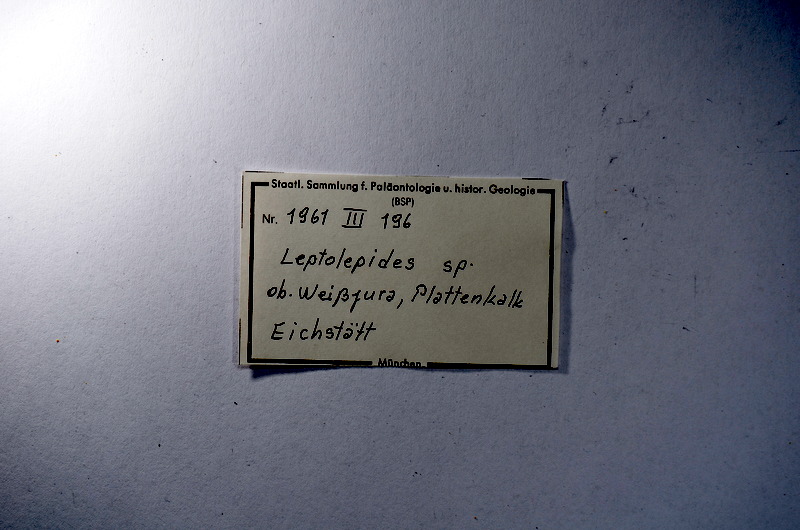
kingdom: Animalia
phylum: Chordata
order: Salmoniformes
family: Orthogonikleithridae
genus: Leptolepides
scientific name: Leptolepides
